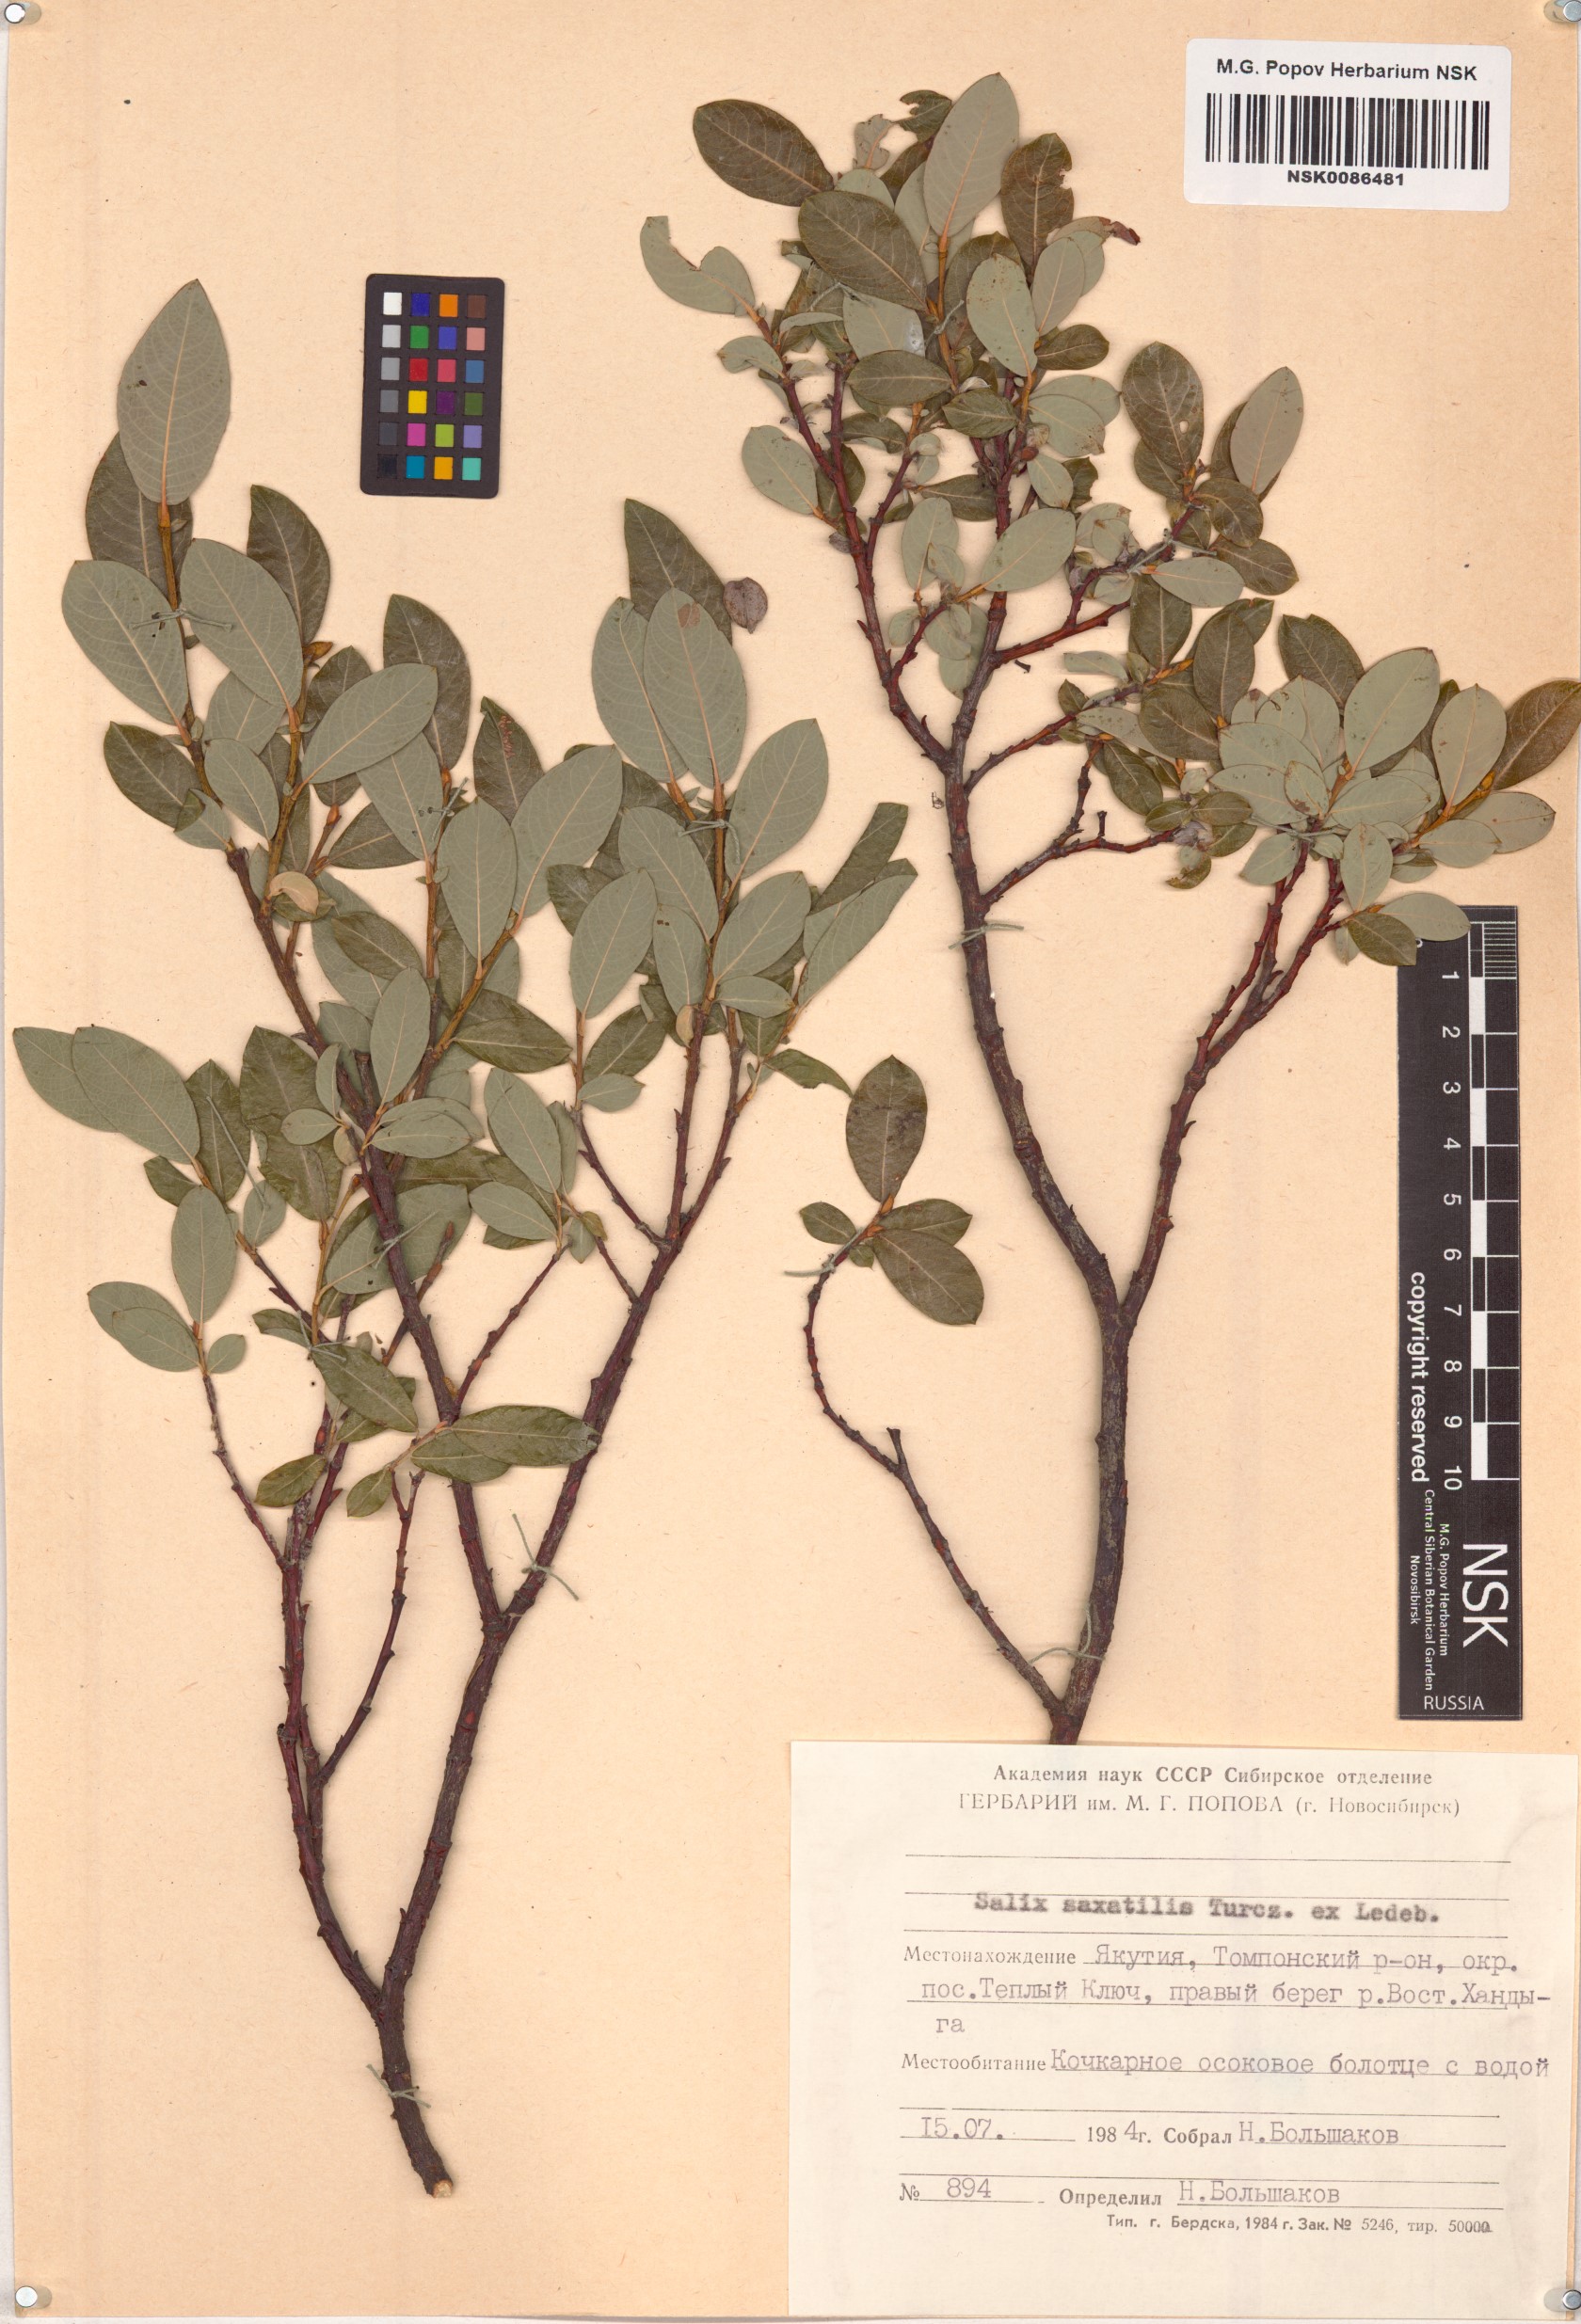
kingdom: Plantae
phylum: Tracheophyta
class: Magnoliopsida
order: Malpighiales
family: Salicaceae
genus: Salix
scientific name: Salix saxatilis
